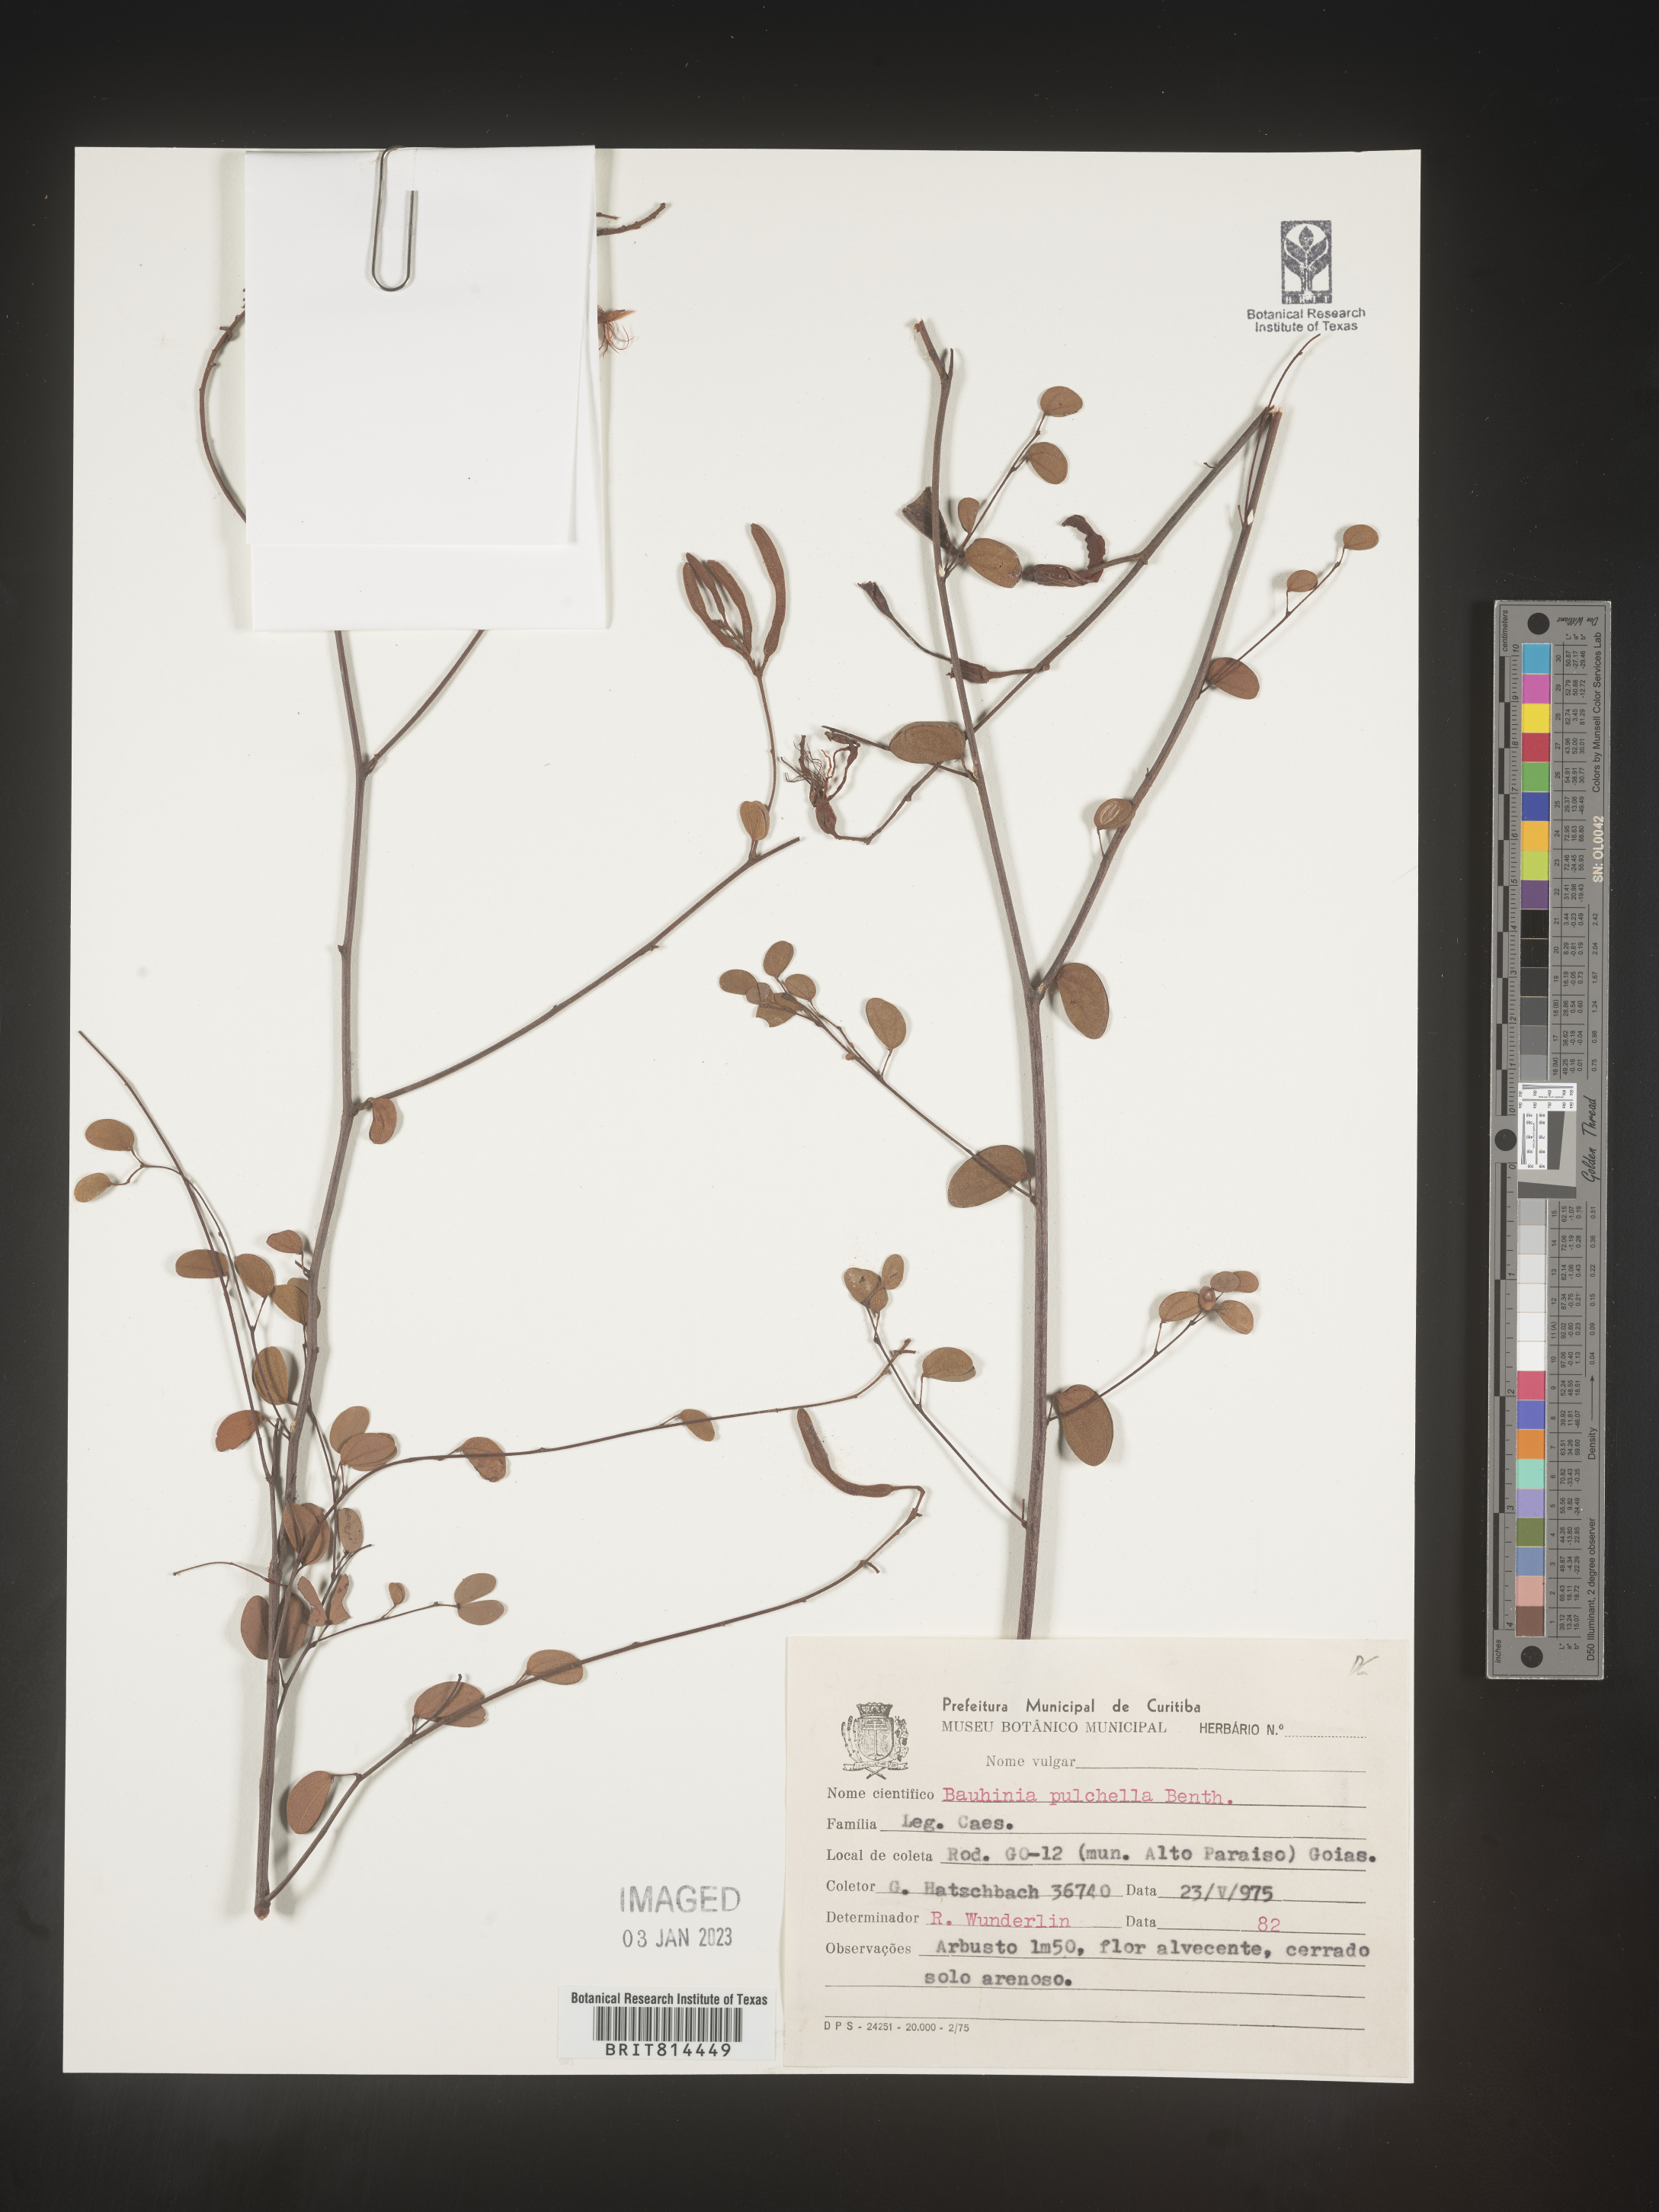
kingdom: Plantae
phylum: Tracheophyta
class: Magnoliopsida
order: Fabales
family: Fabaceae
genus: Bauhinia
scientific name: Bauhinia
